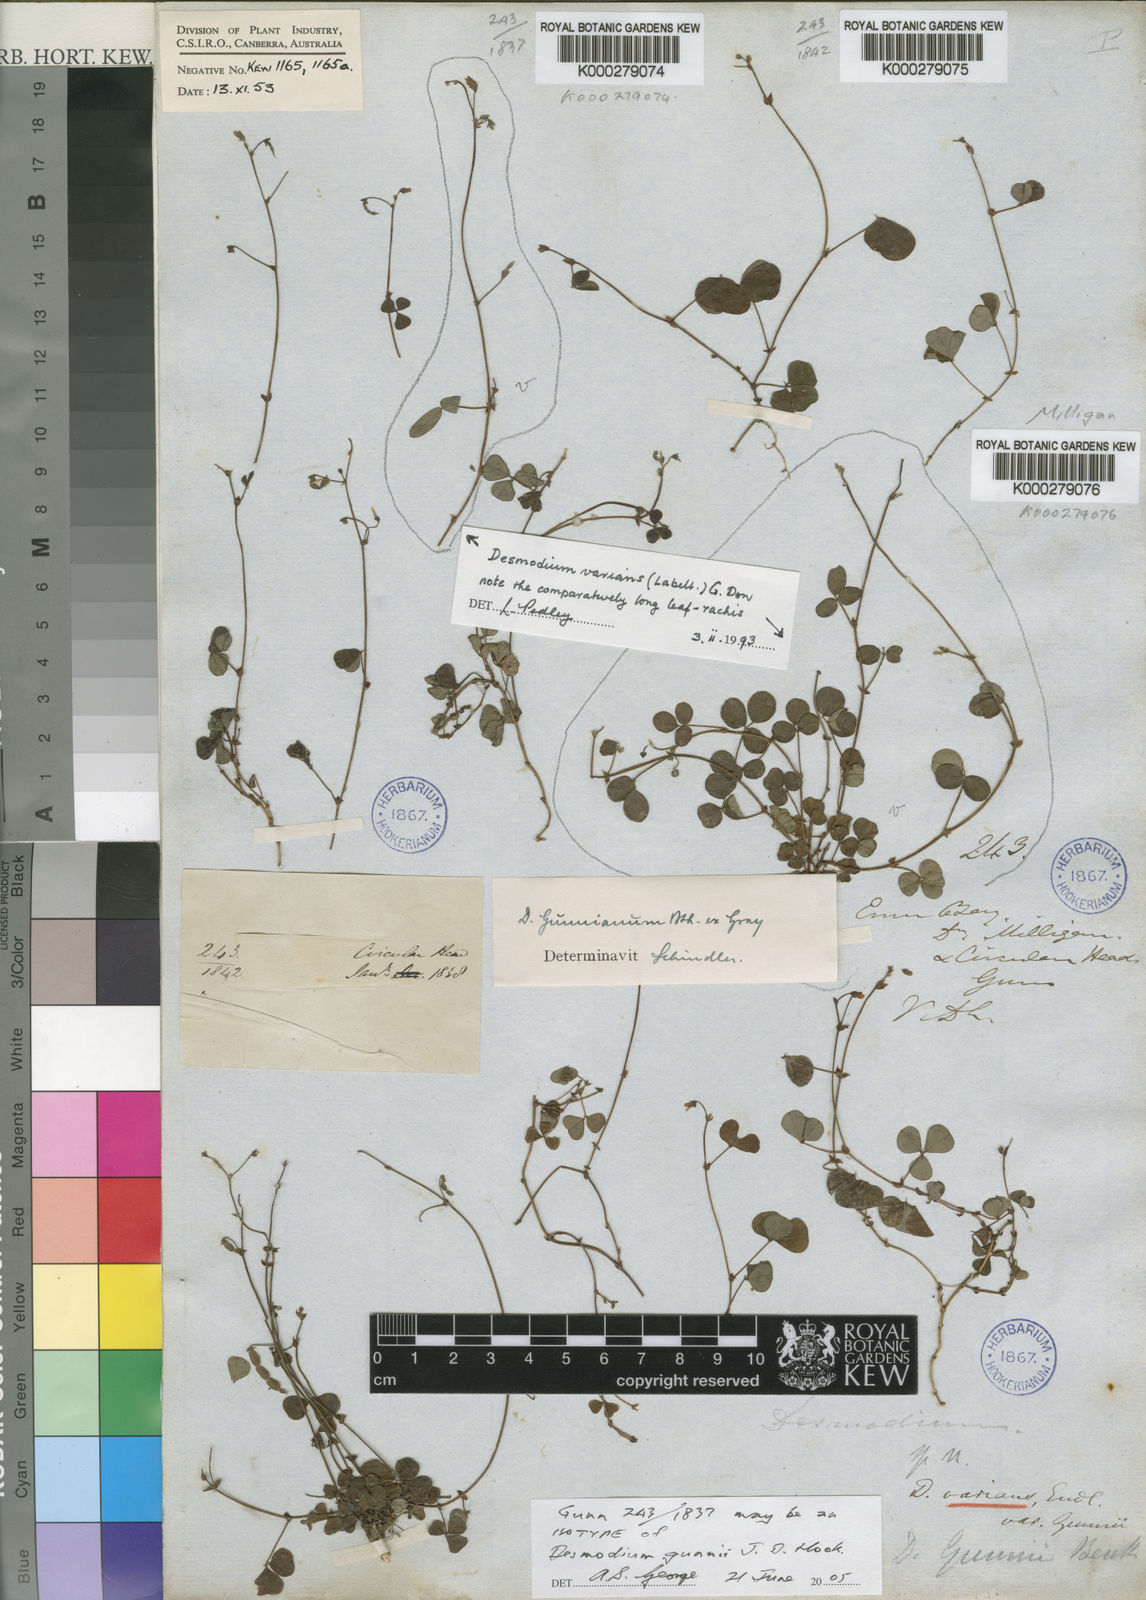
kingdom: Plantae
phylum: Tracheophyta
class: Magnoliopsida
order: Fabales
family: Fabaceae
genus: Pullenia
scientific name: Pullenia gunnii
